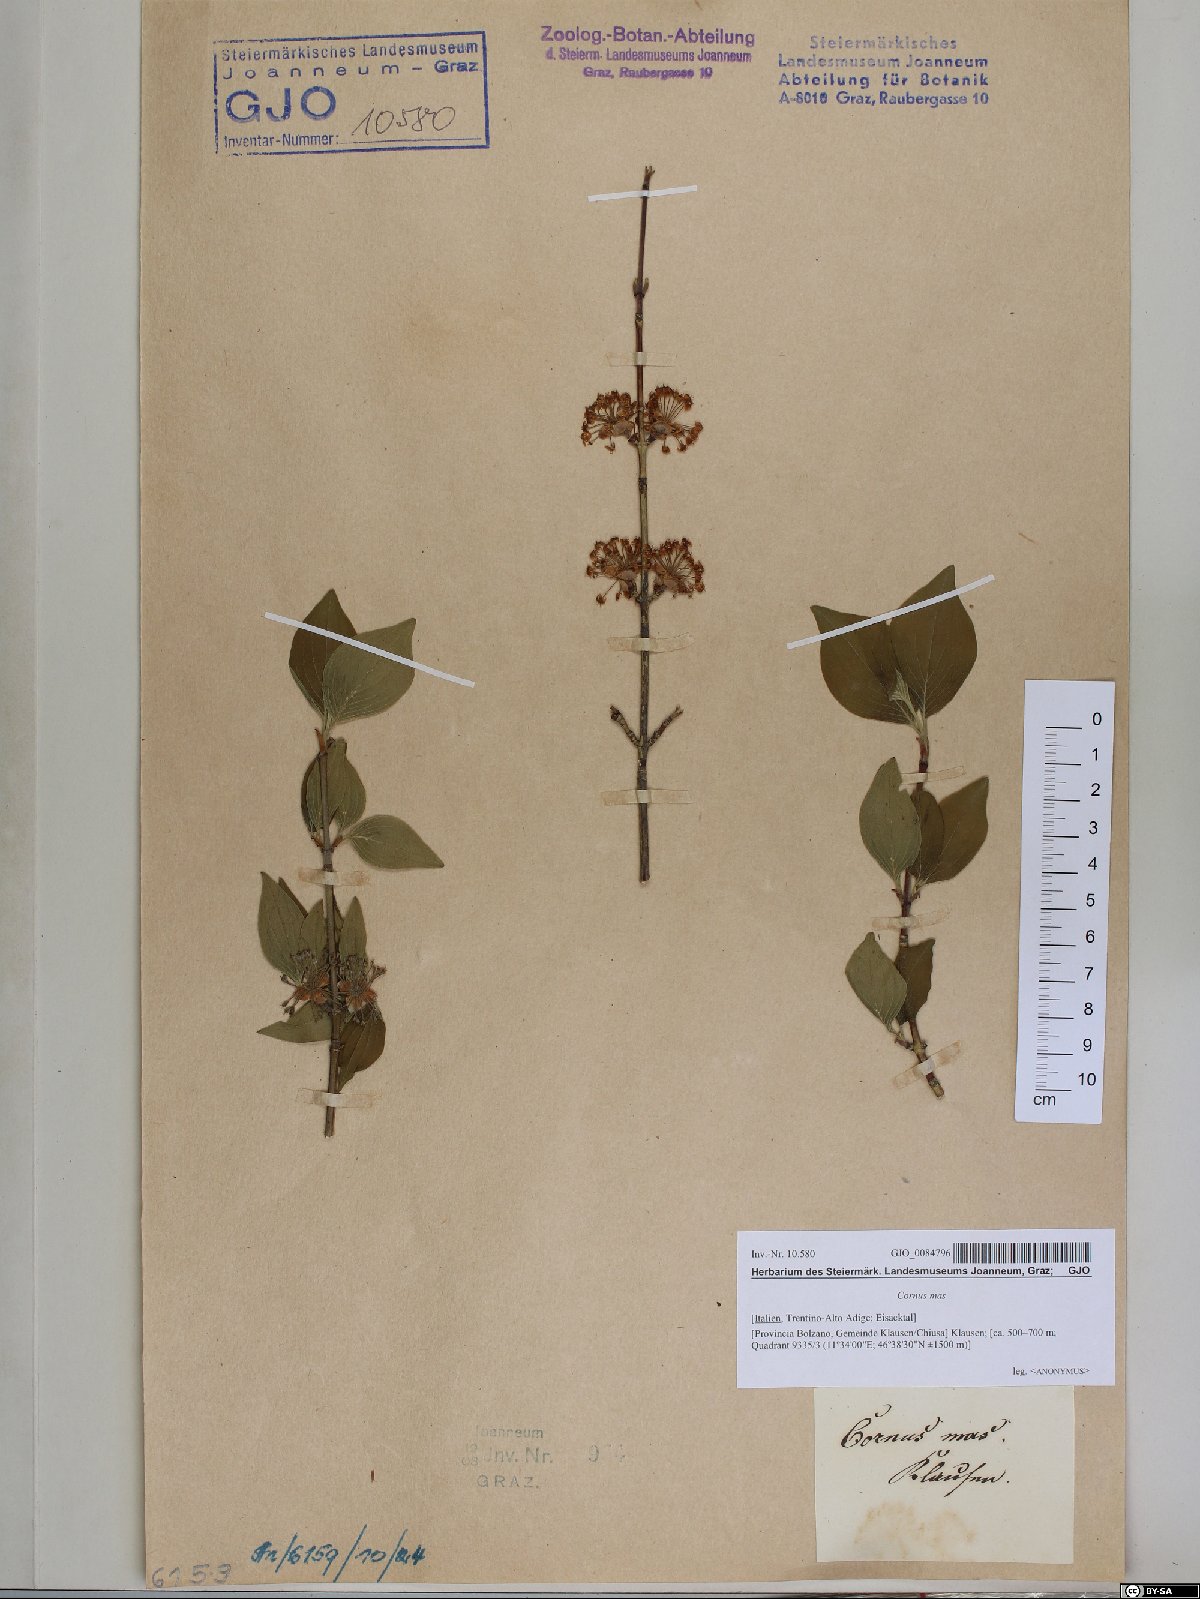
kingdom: Plantae
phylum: Tracheophyta
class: Magnoliopsida
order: Cornales
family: Cornaceae
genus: Cornus
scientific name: Cornus mas
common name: Cornelian-cherry
